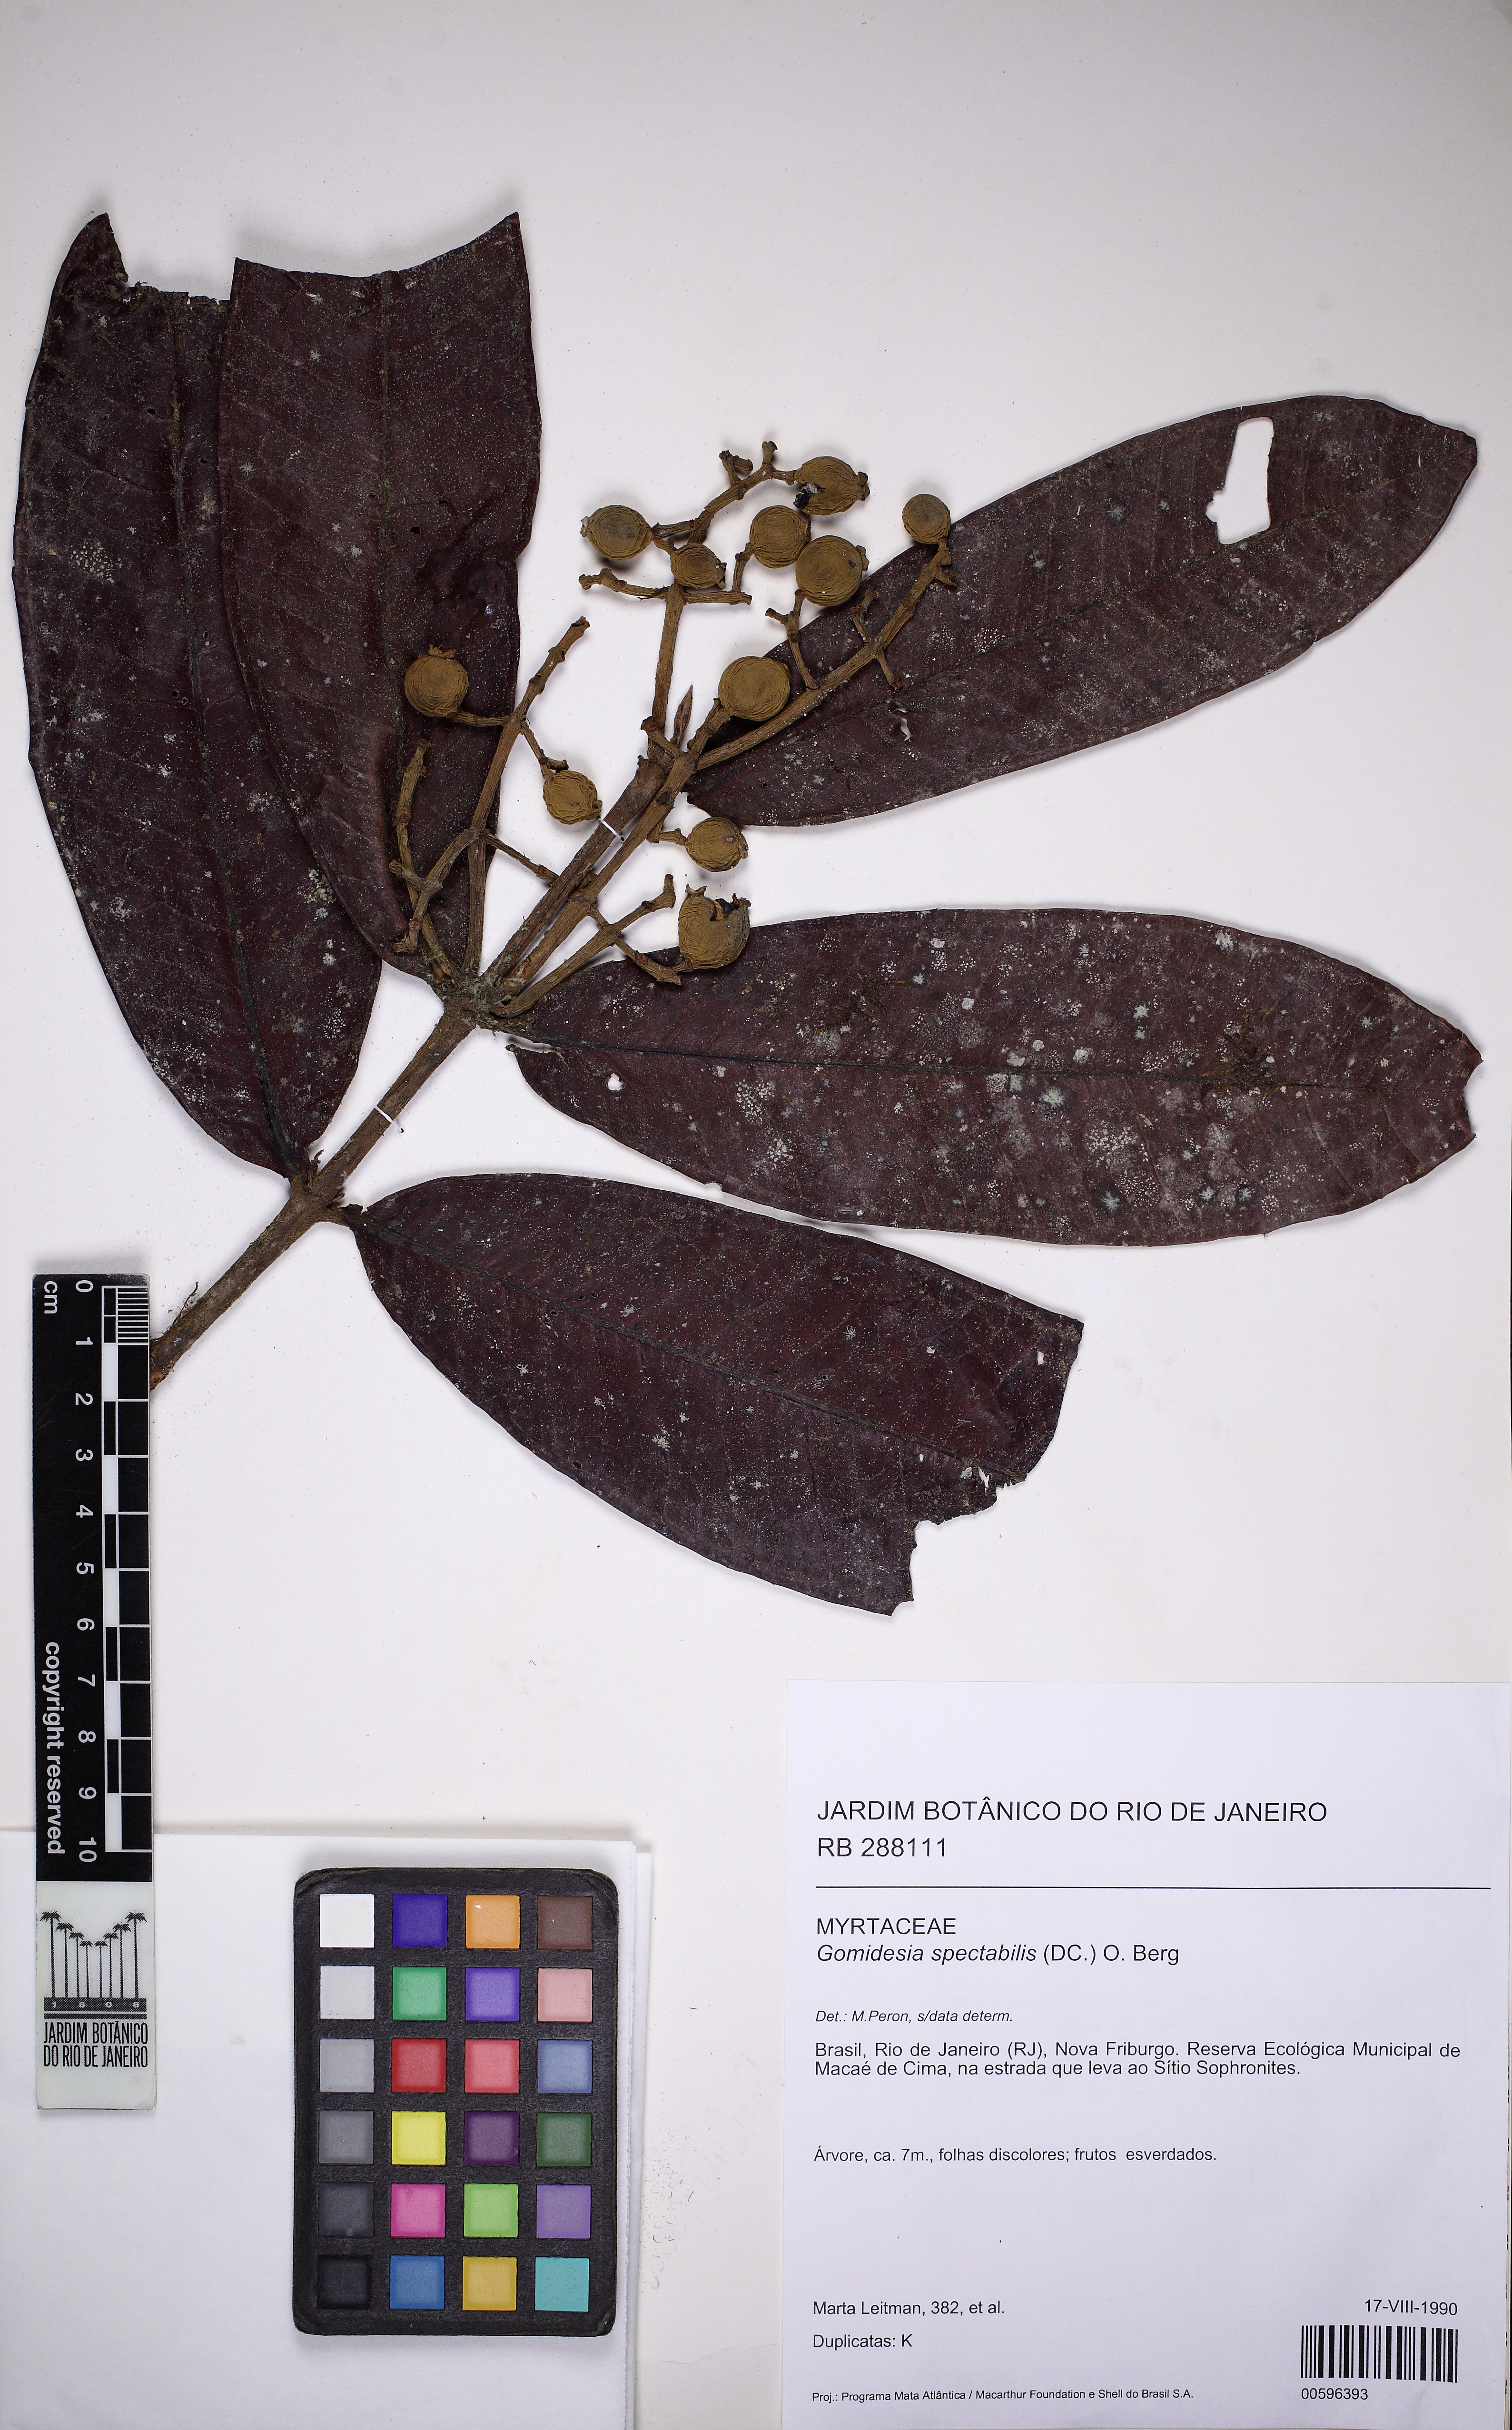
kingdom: Plantae
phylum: Tracheophyta
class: Magnoliopsida
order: Myrtales
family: Myrtaceae
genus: Myrcia
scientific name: Myrcia spectabilis
